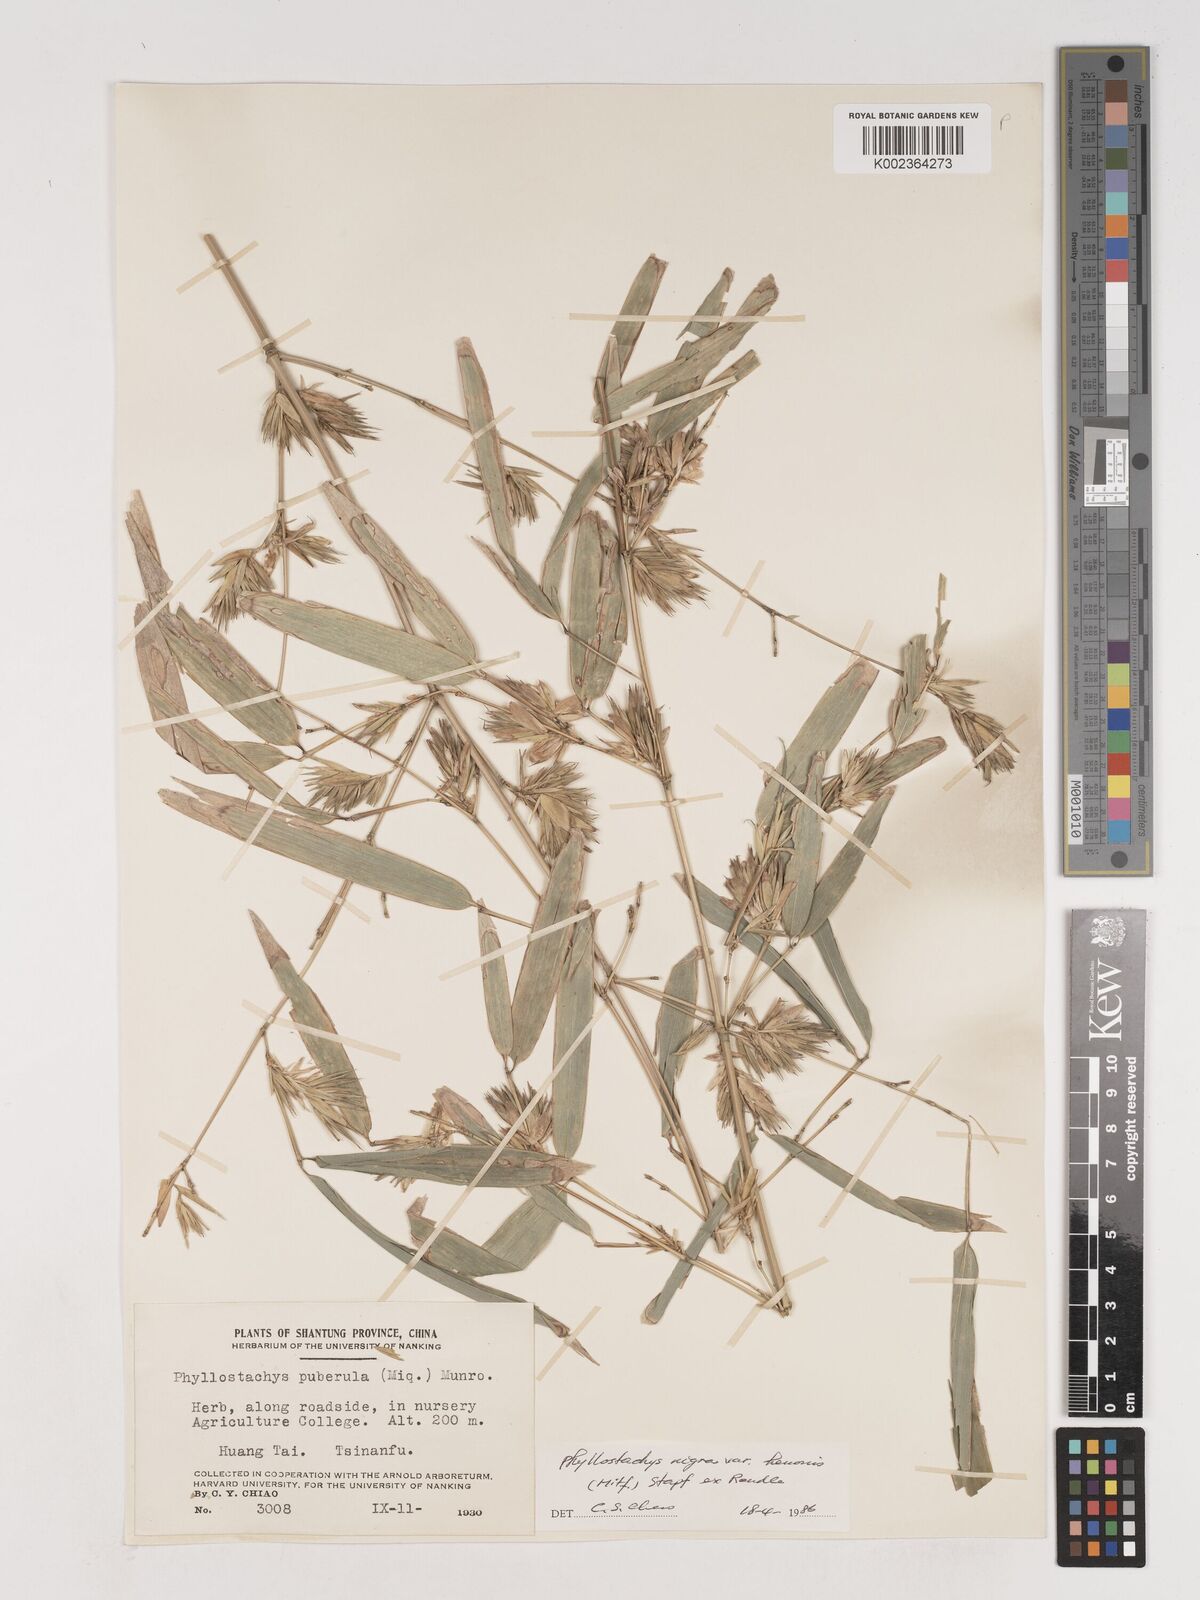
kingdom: Plantae
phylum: Tracheophyta
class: Liliopsida
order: Poales
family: Poaceae
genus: Phyllostachys
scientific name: Phyllostachys nigra
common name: Black bamboo
